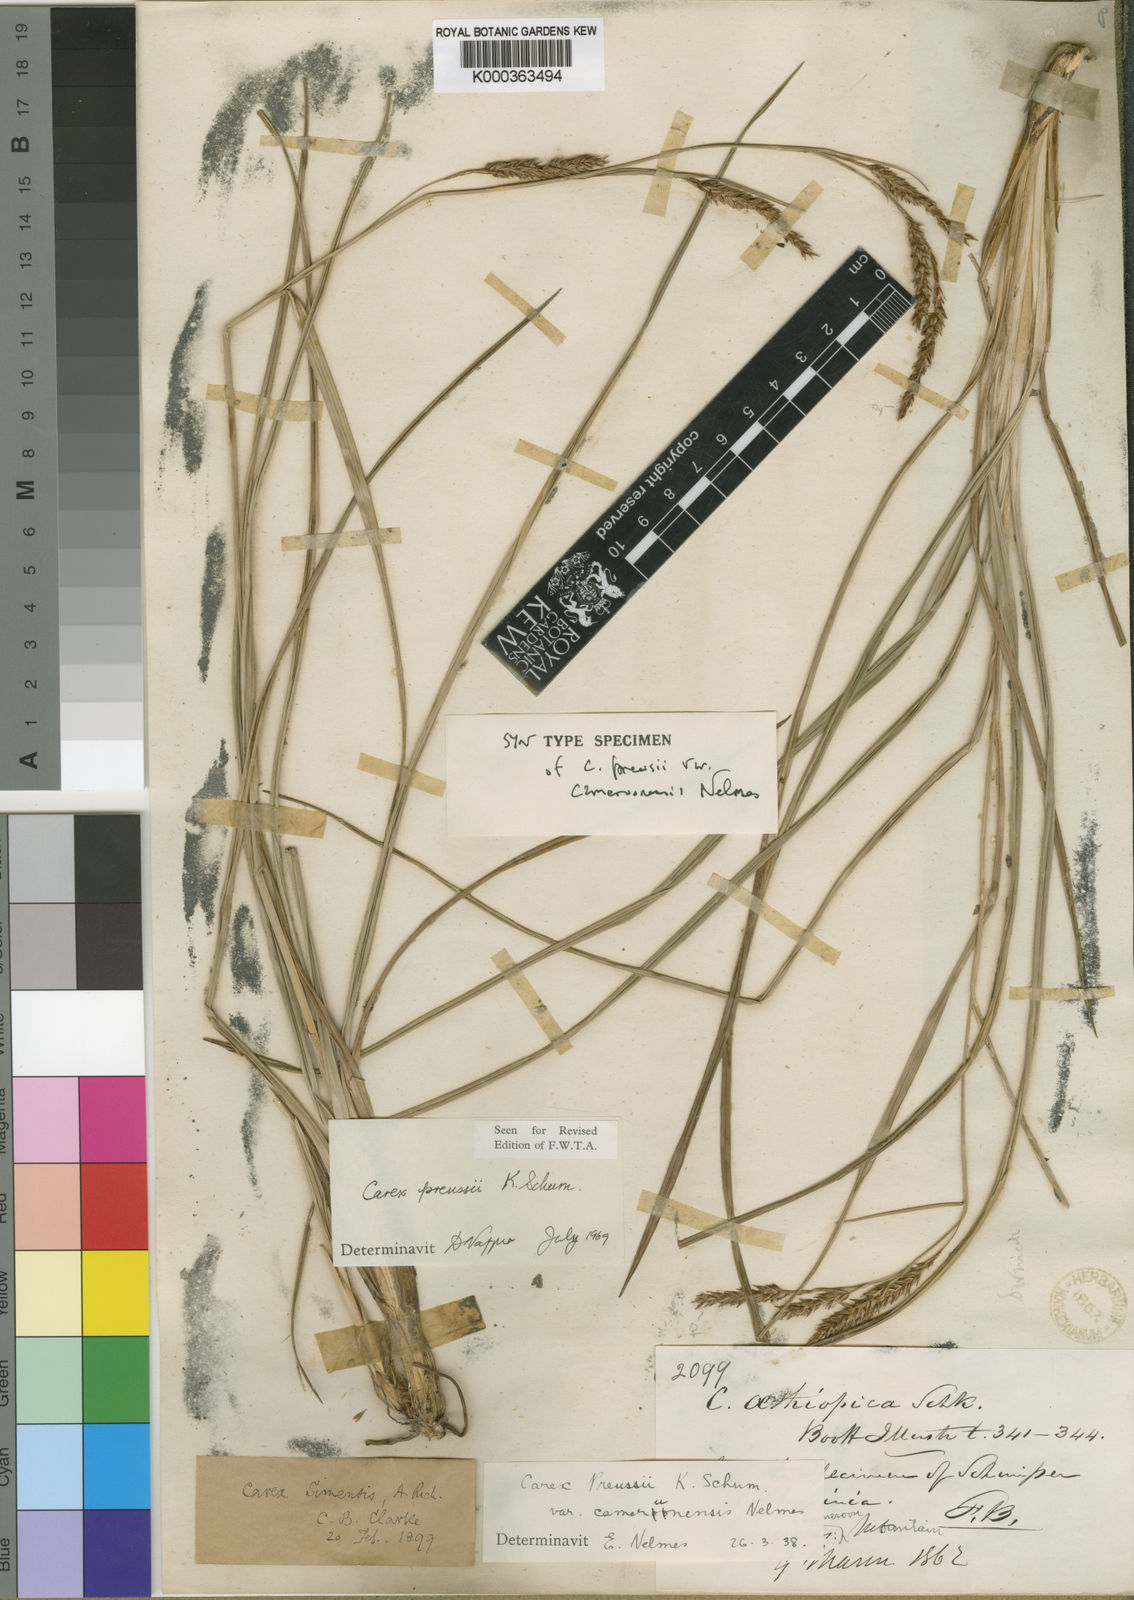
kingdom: Plantae
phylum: Tracheophyta
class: Liliopsida
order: Poales
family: Cyperaceae
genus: Carex
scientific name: Carex petitiana
